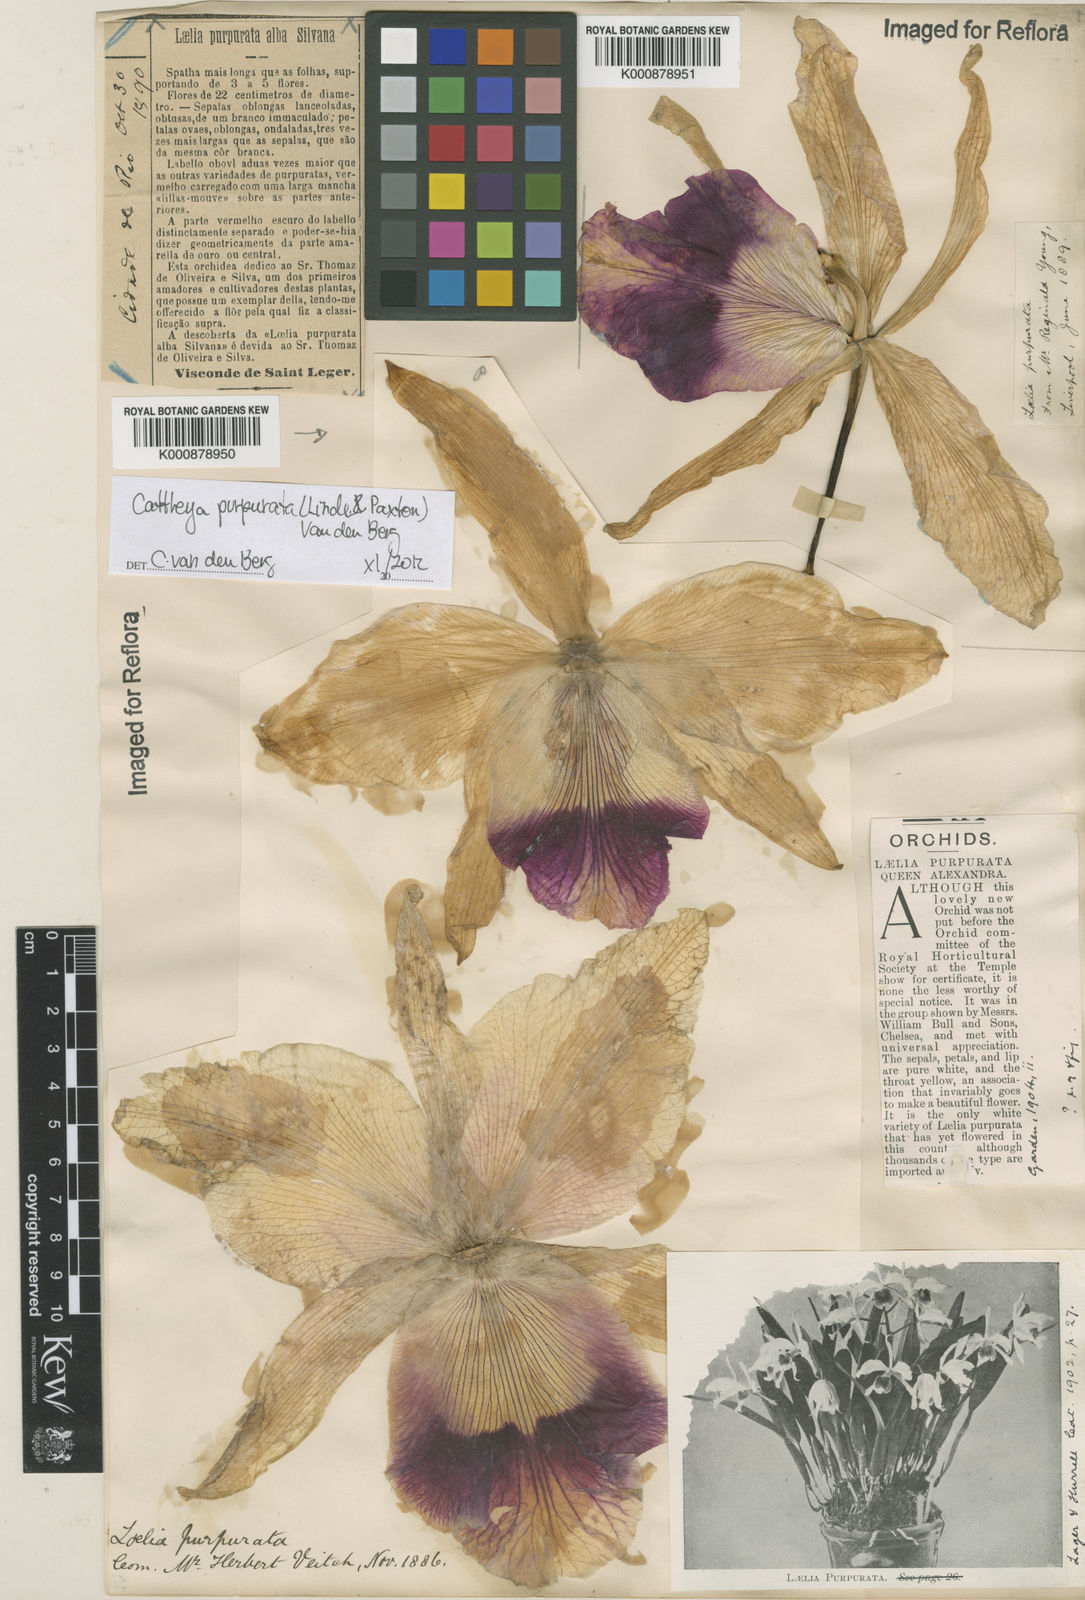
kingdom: Plantae
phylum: Tracheophyta
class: Liliopsida
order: Asparagales
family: Orchidaceae
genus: Cattleya
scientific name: Cattleya
